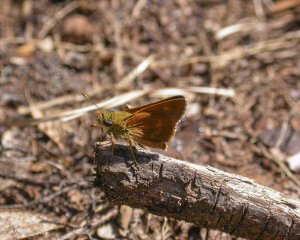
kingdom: Animalia
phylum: Arthropoda
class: Insecta
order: Lepidoptera
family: Hesperiidae
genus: Wallengrenia
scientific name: Wallengrenia otho
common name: Southern Broken-Dash
